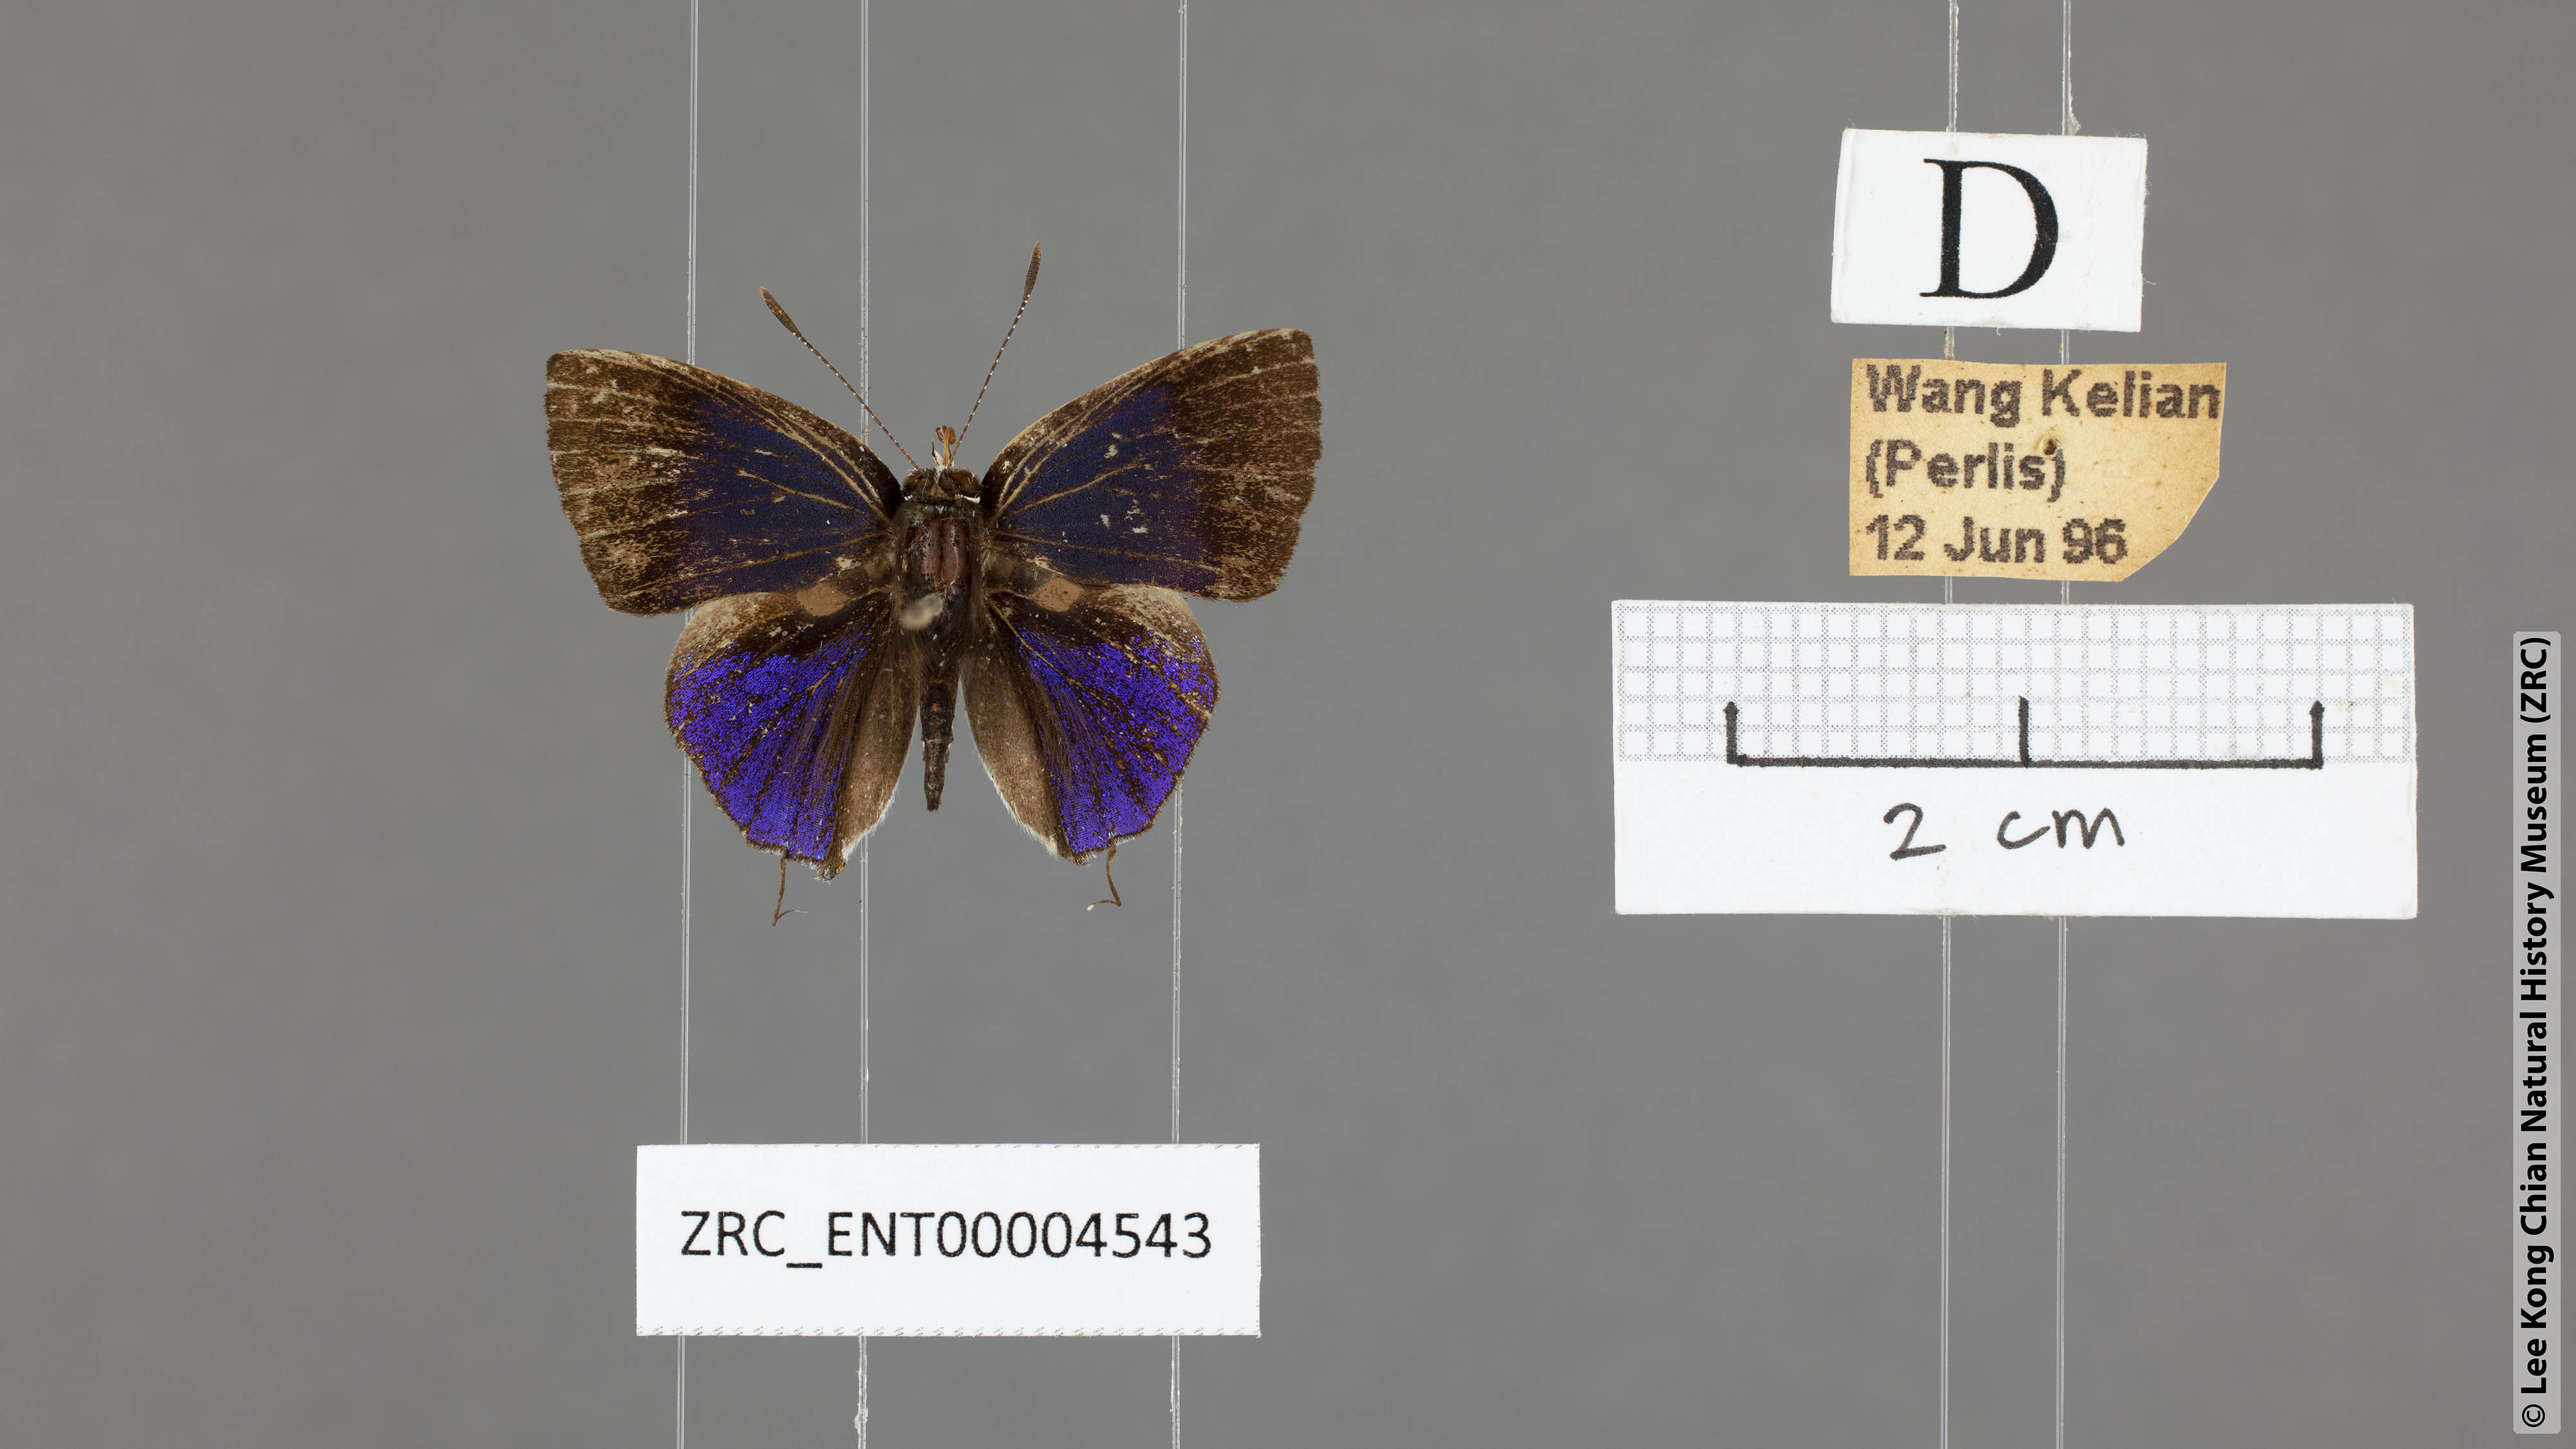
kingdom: Animalia
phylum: Arthropoda
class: Insecta
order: Lepidoptera
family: Lycaenidae
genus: Sinthusa
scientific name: Sinthusa nasaka
